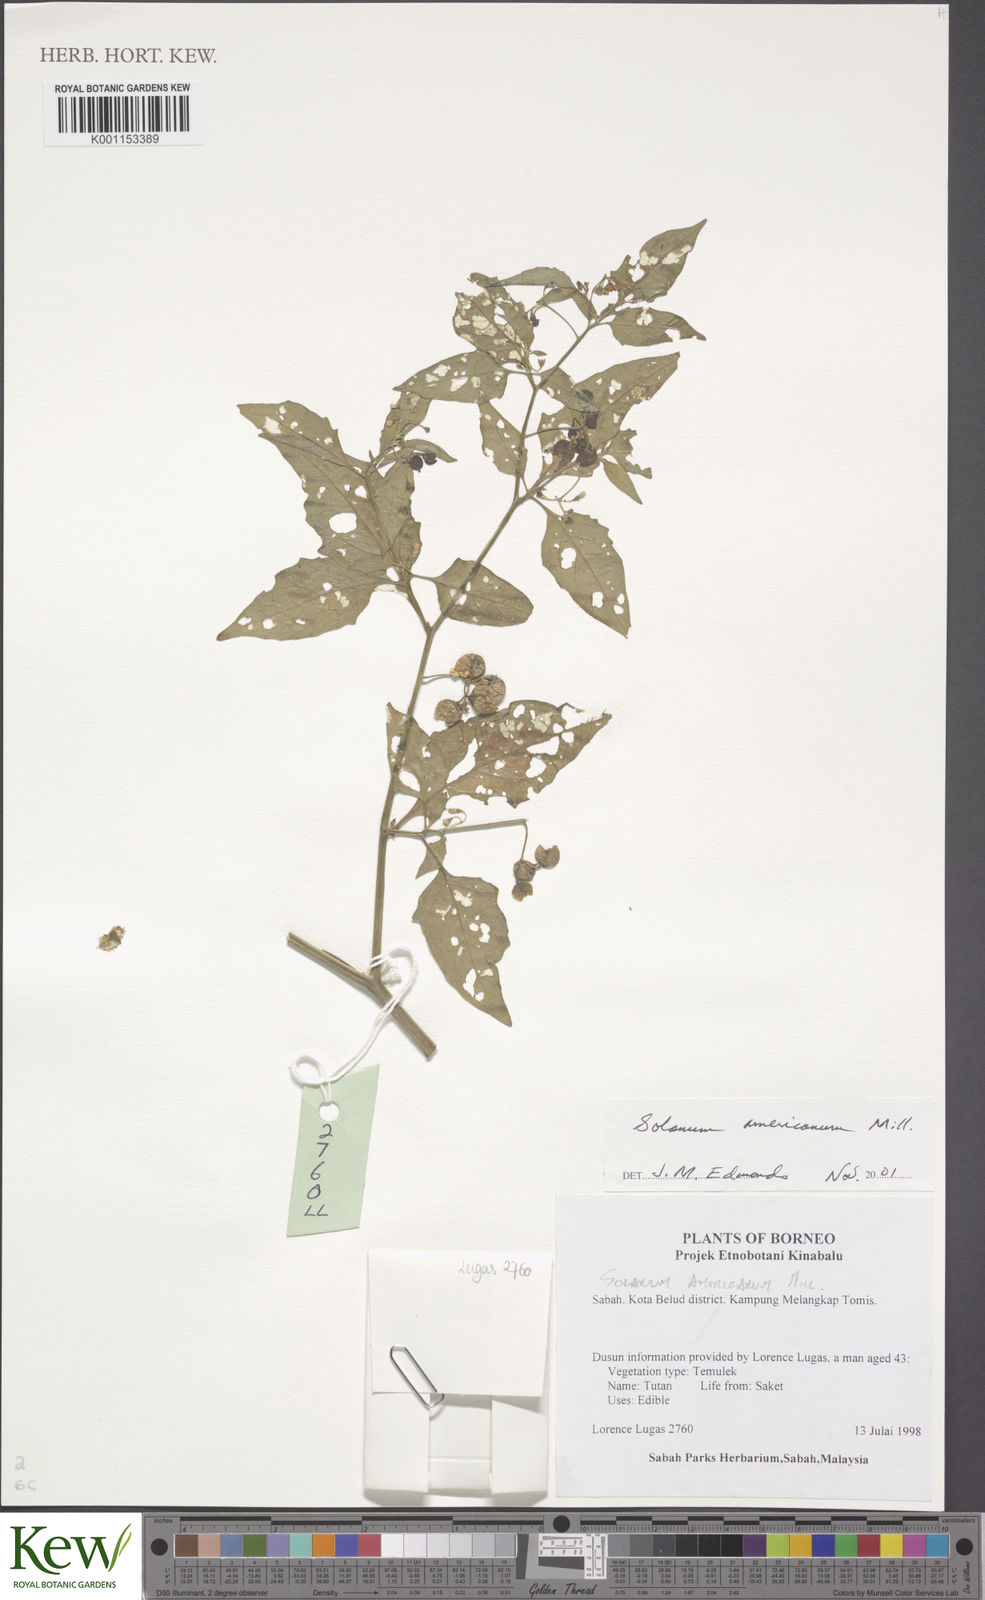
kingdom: Plantae
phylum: Tracheophyta
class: Magnoliopsida
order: Solanales
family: Solanaceae
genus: Solanum
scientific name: Solanum americanum
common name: American black nightshade
